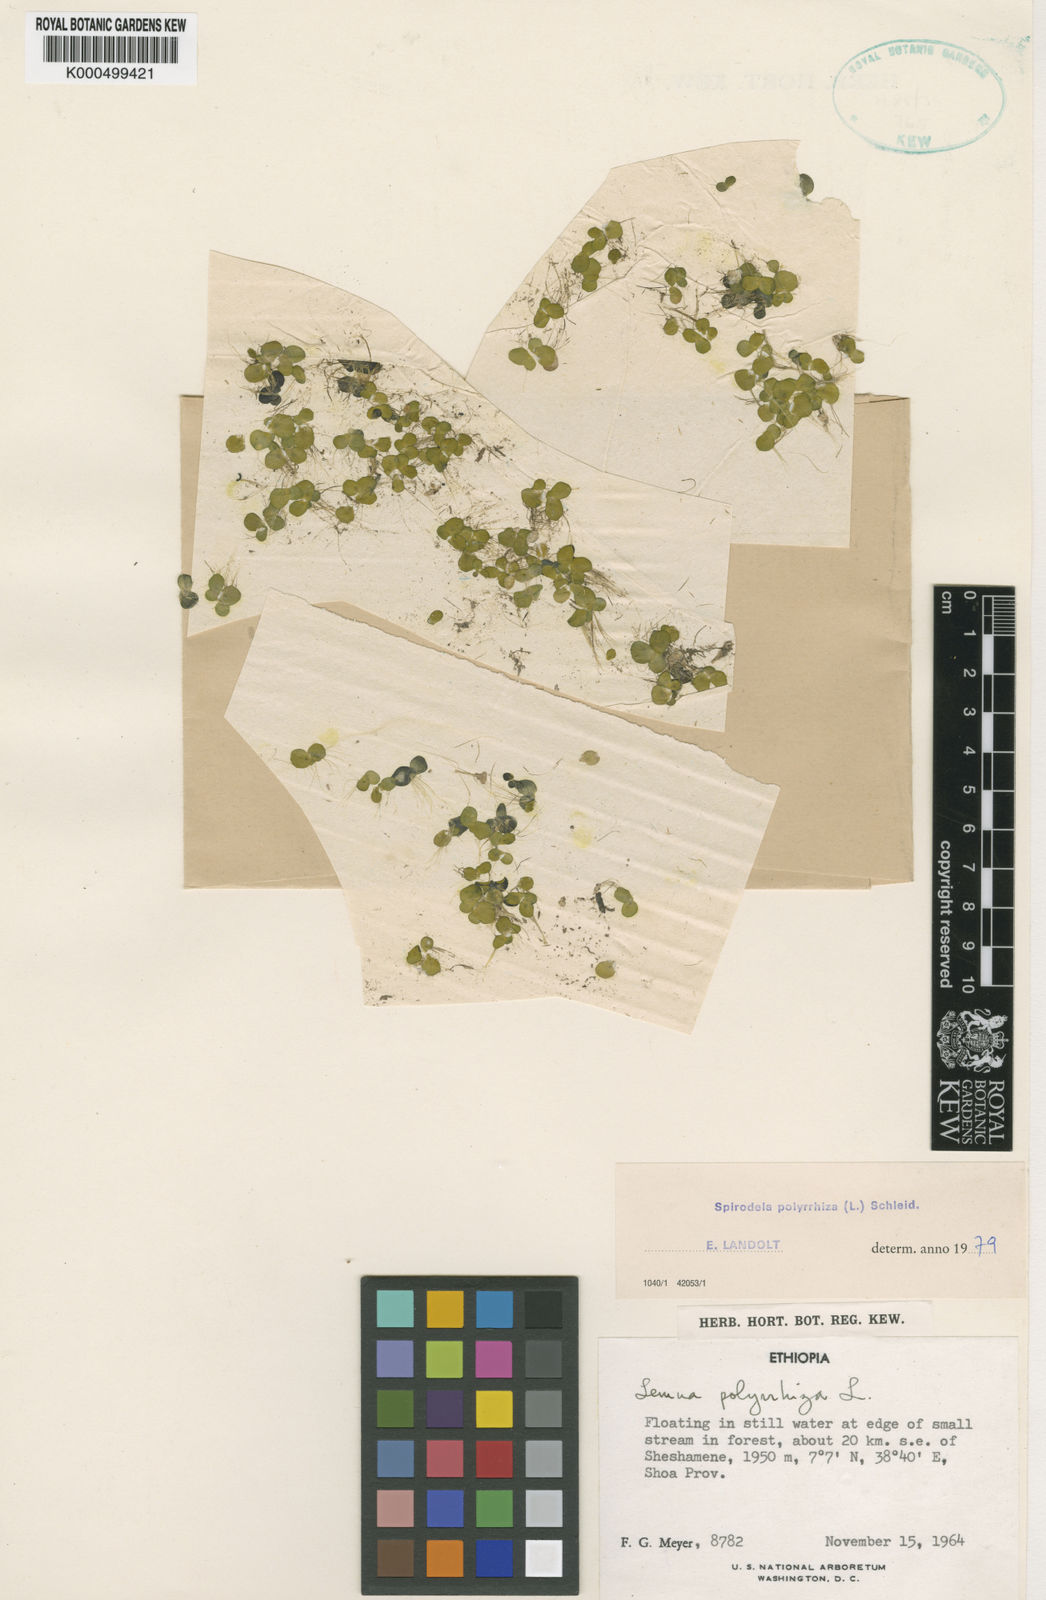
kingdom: Plantae
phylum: Tracheophyta
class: Liliopsida
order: Alismatales
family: Araceae
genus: Spirodela
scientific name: Spirodela polyrhiza
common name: Great duckweed
